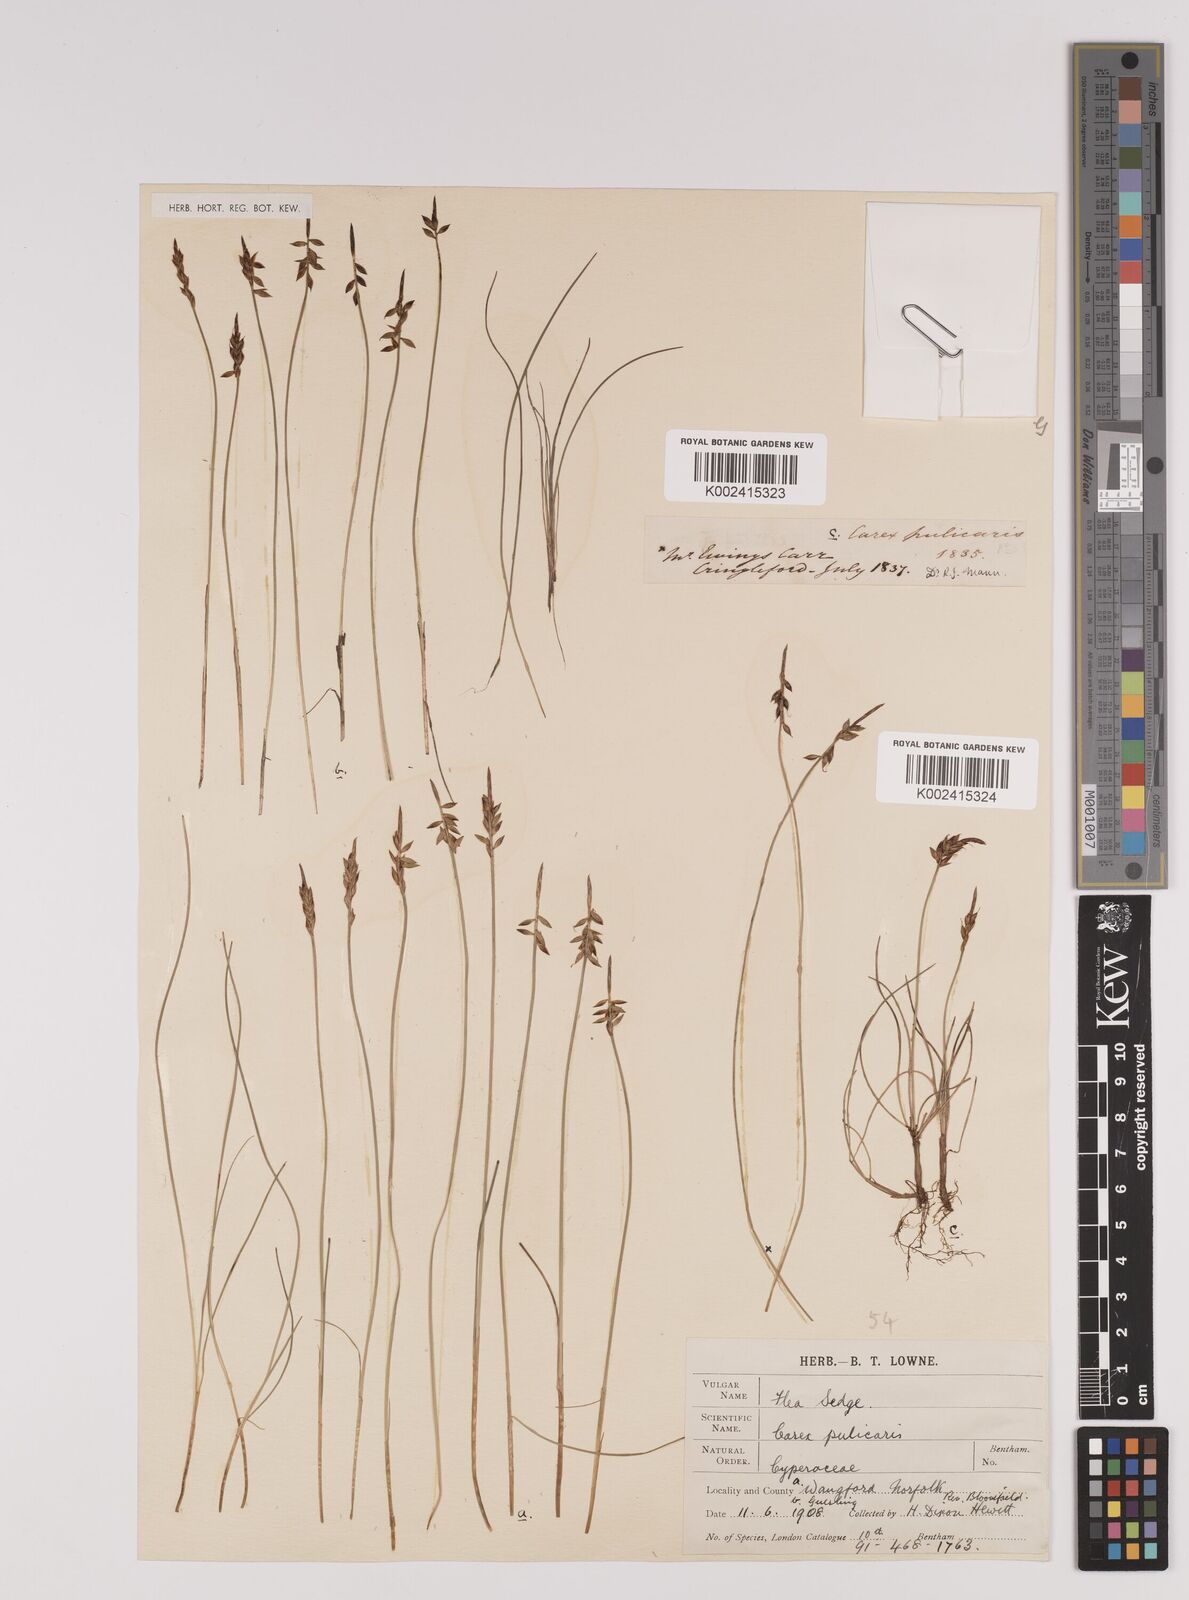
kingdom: Plantae
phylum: Tracheophyta
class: Liliopsida
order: Poales
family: Cyperaceae
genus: Carex
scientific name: Carex pulicaris
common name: Flea sedge
